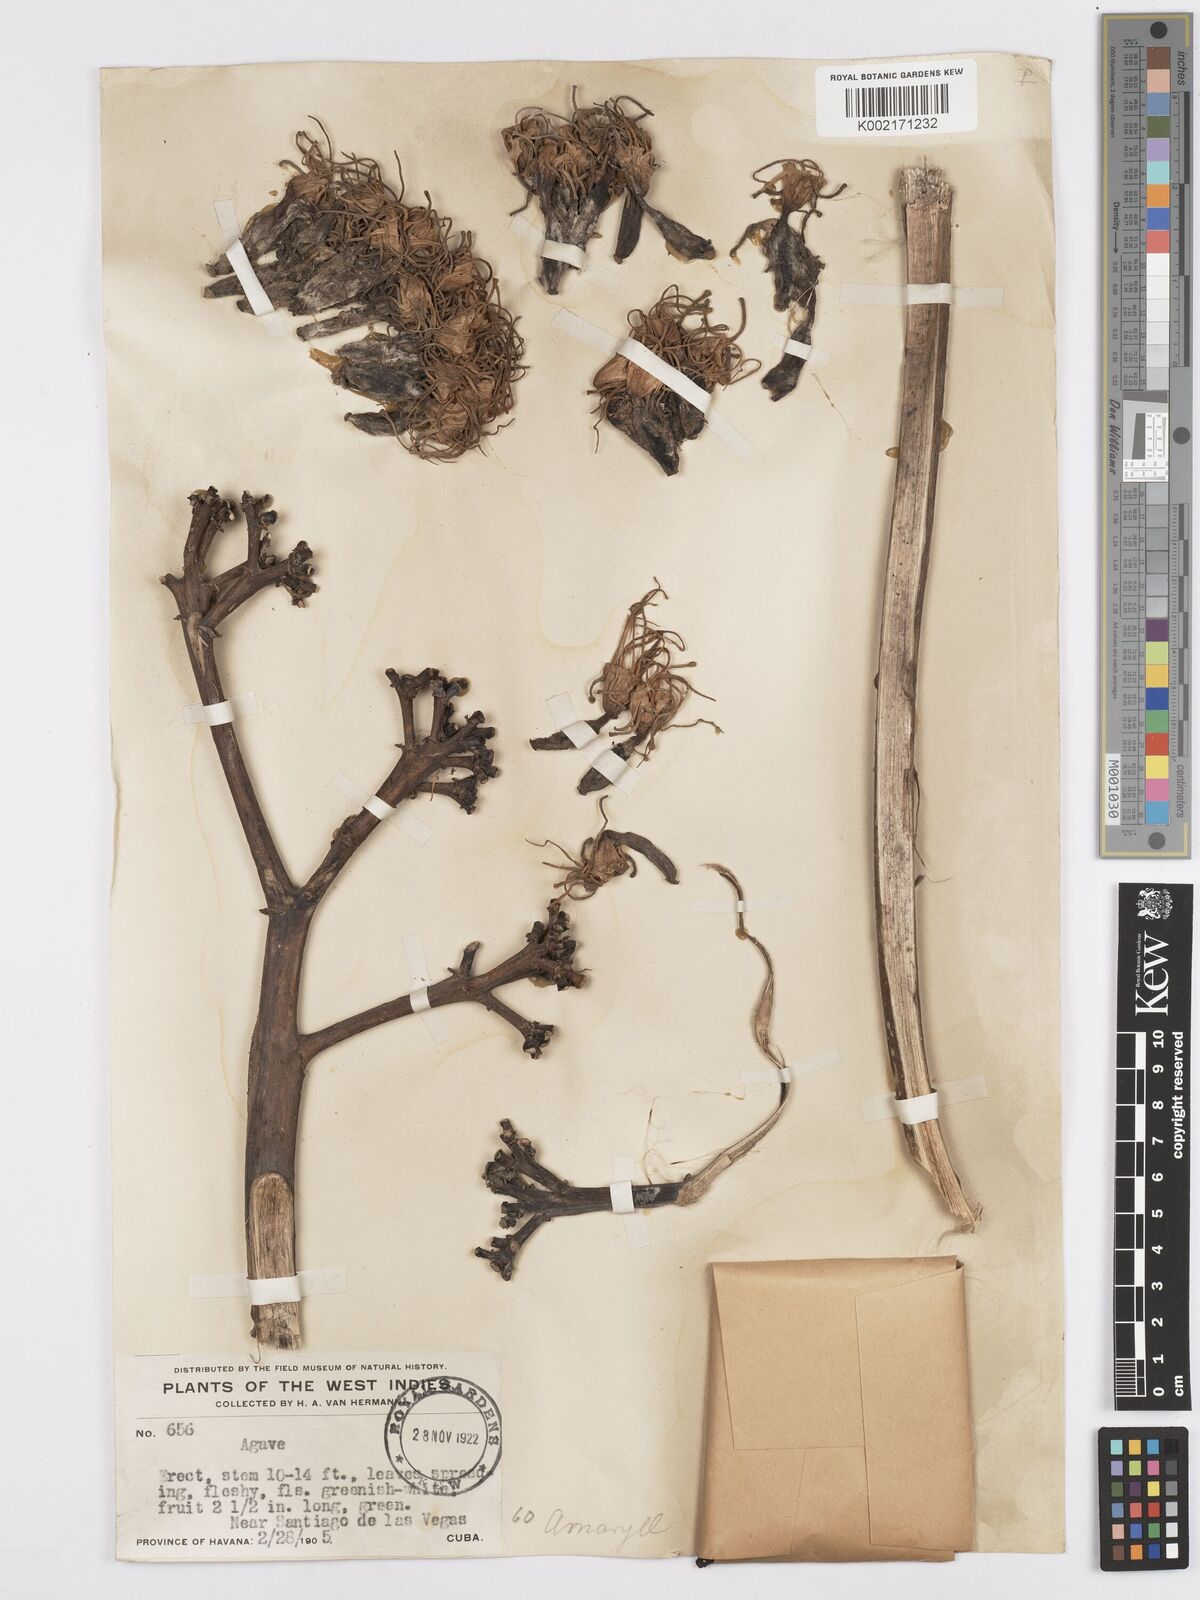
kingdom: Plantae
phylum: Tracheophyta
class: Liliopsida
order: Asparagales
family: Asparagaceae
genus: Agave
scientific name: Agave
